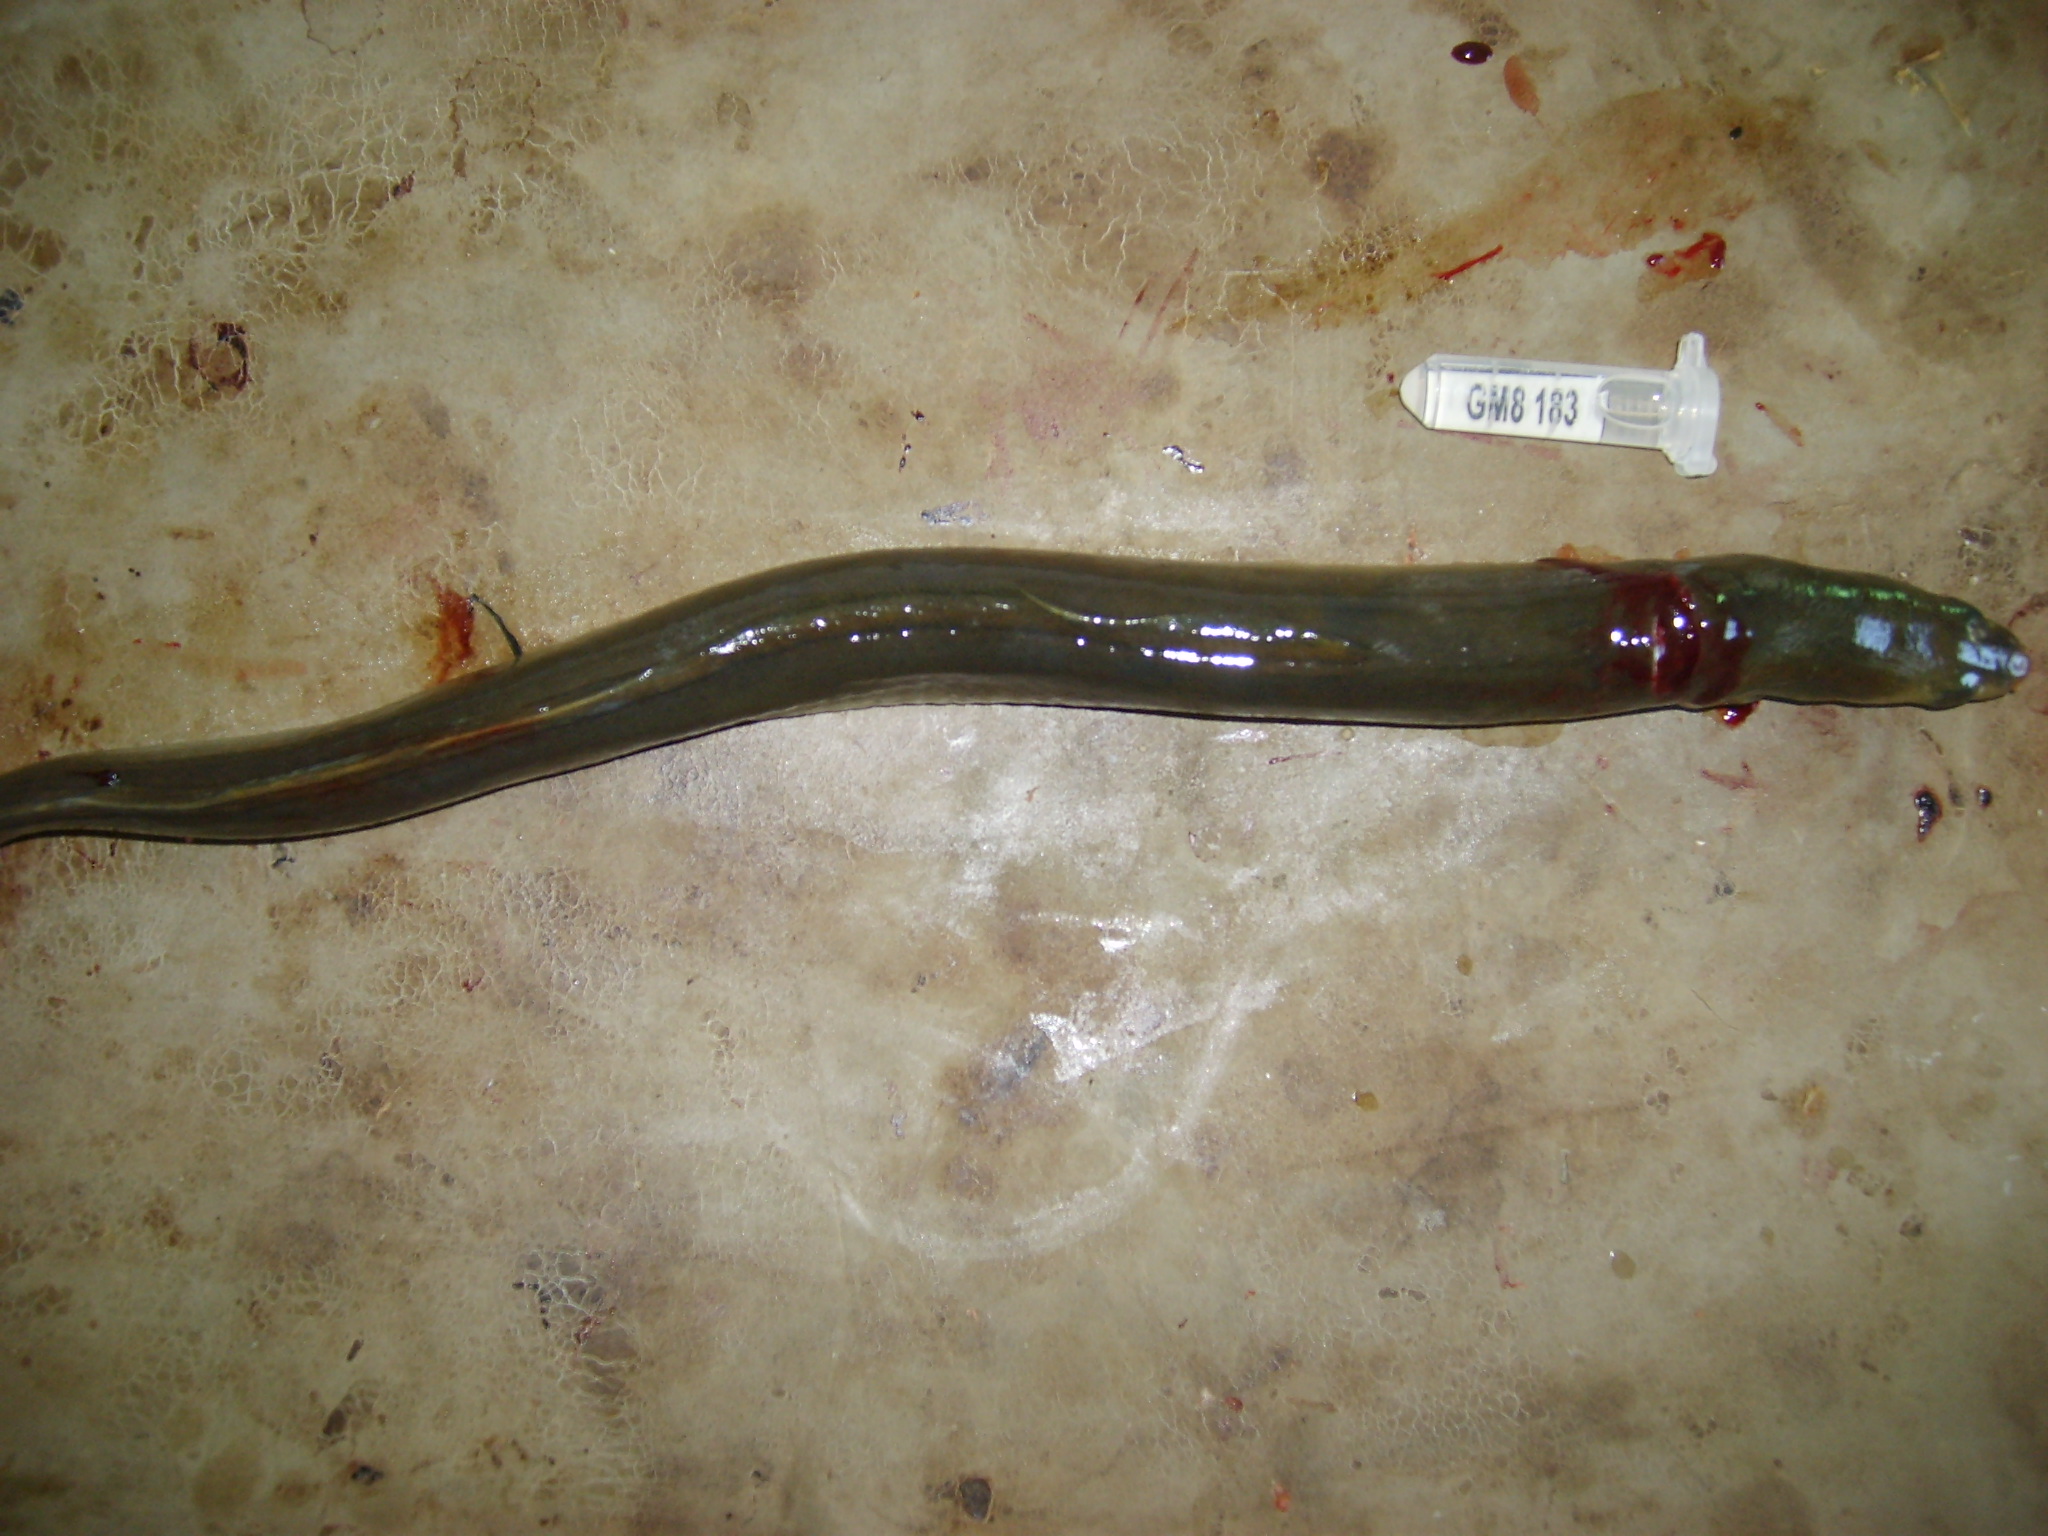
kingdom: Animalia
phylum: Chordata
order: Anguilliformes
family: Anguillidae
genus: Anguilla
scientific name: Anguilla mossambica
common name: African longfin eel
